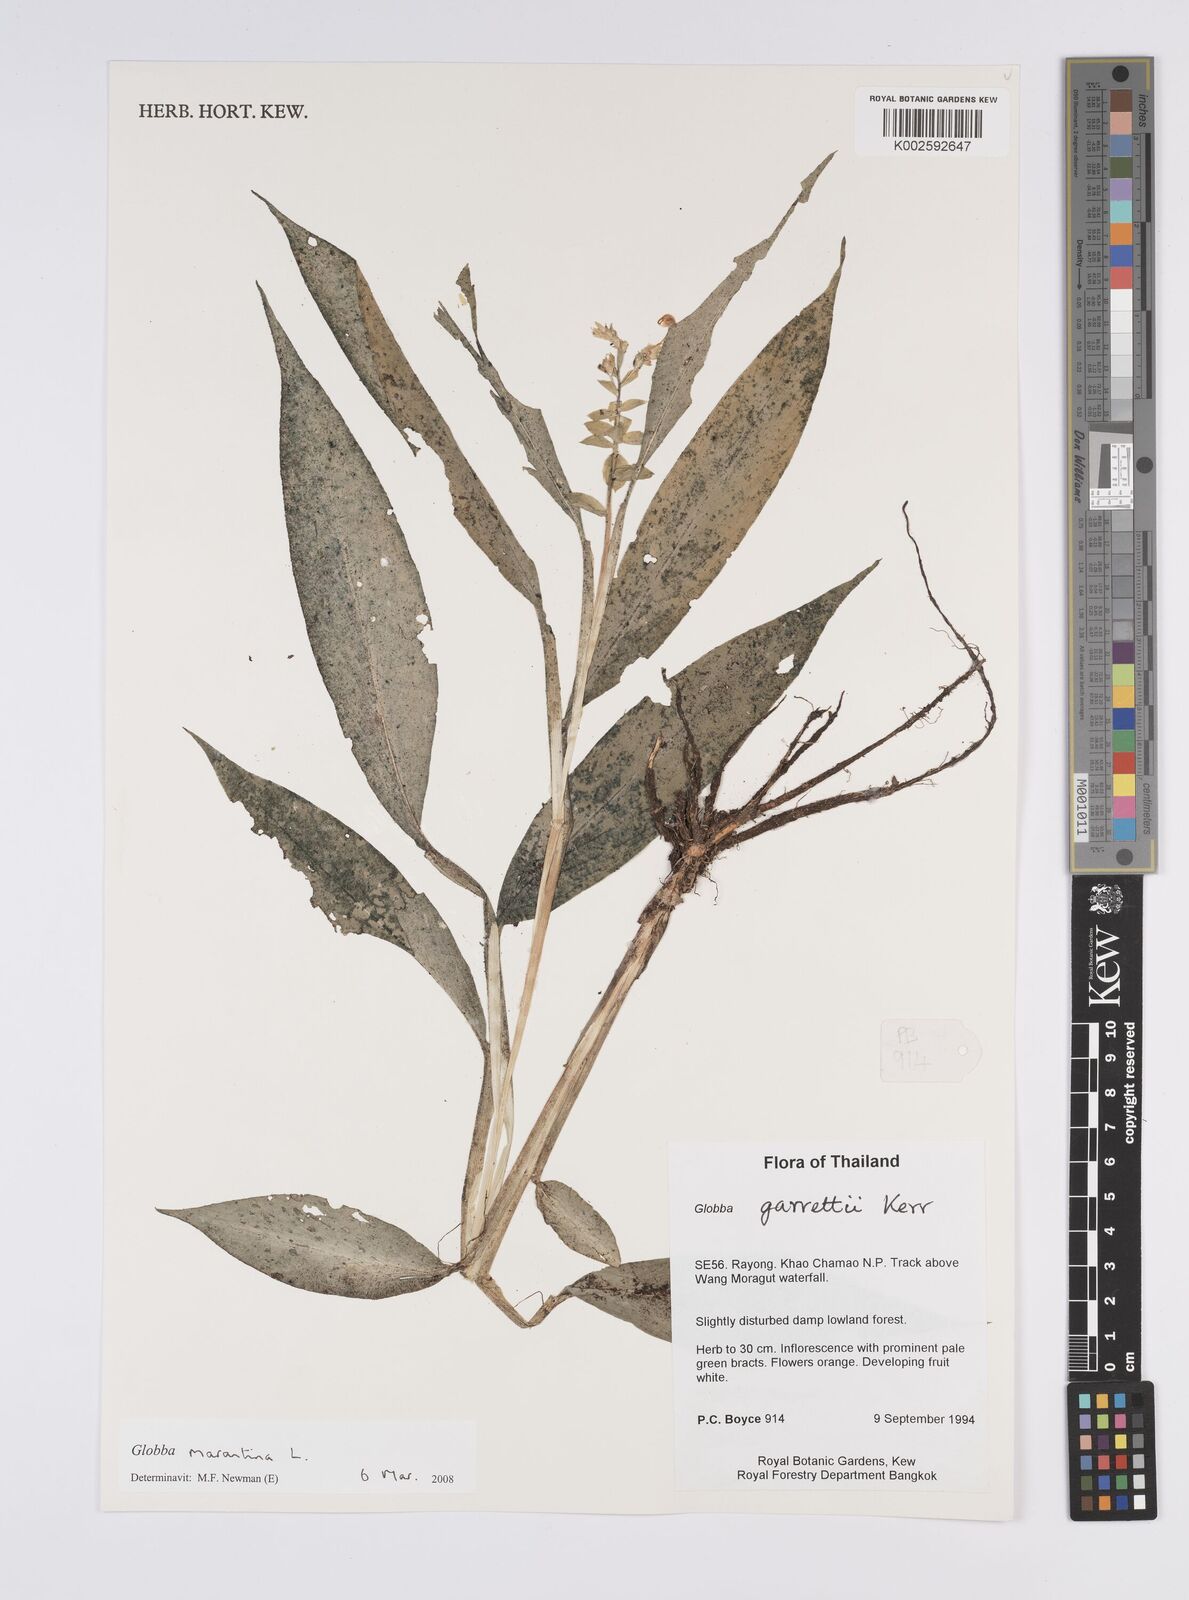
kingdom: Plantae
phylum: Tracheophyta
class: Liliopsida
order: Zingiberales
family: Zingiberaceae
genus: Globba
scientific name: Globba marantina
